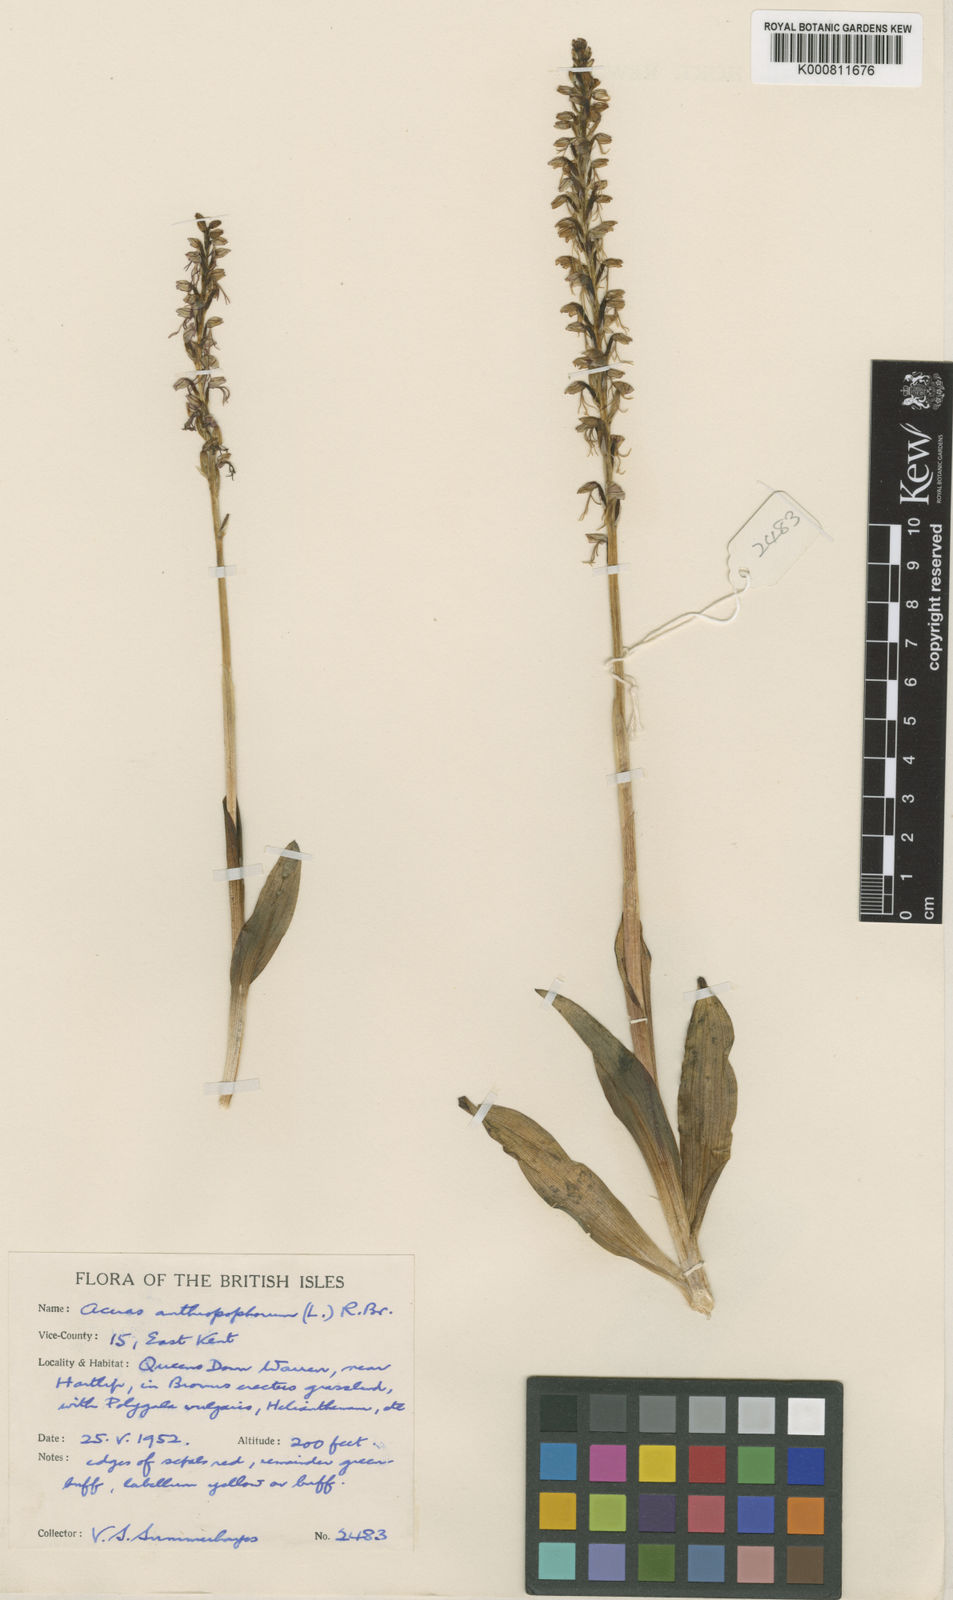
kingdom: Plantae
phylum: Tracheophyta
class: Liliopsida
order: Asparagales
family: Orchidaceae
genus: Orchis
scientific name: Orchis
